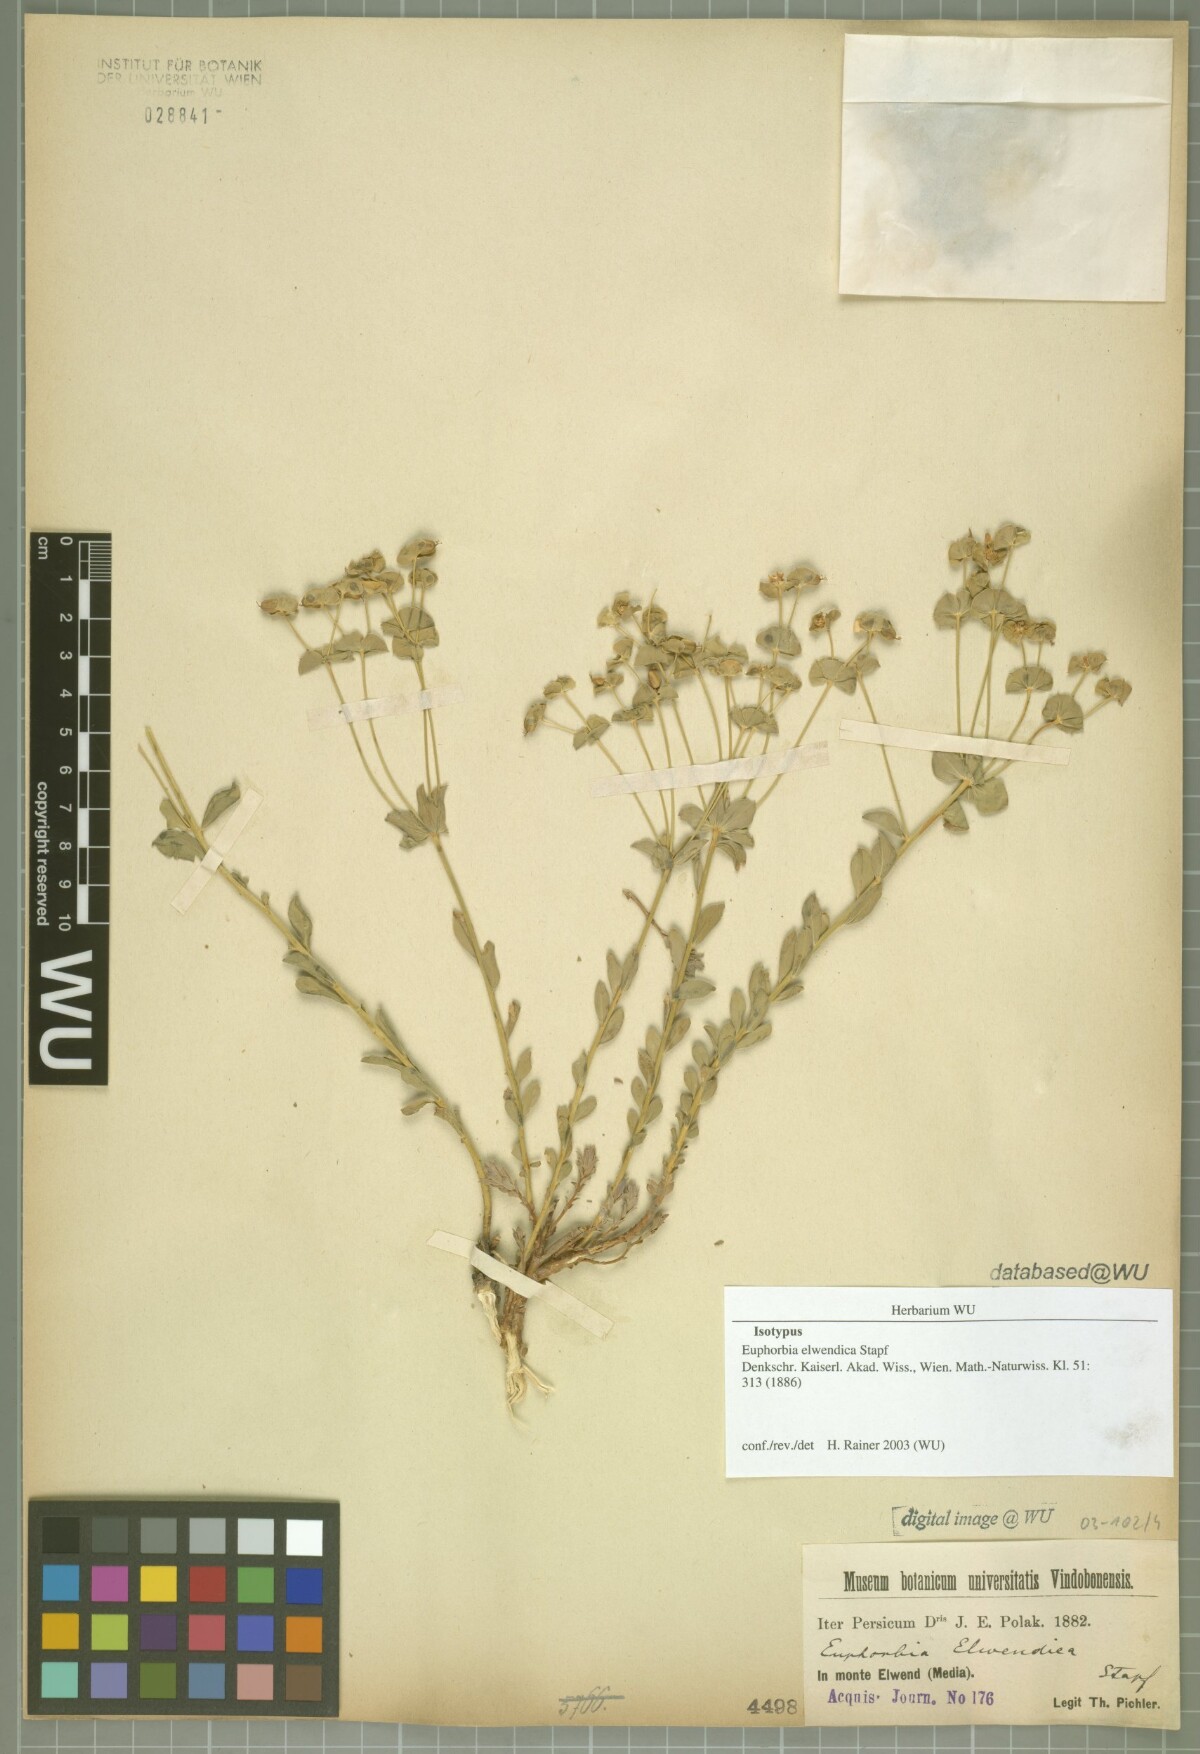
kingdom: Plantae
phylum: Tracheophyta
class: Magnoliopsida
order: Malpighiales
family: Euphorbiaceae
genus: Euphorbia
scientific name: Euphorbia cheiradenia
